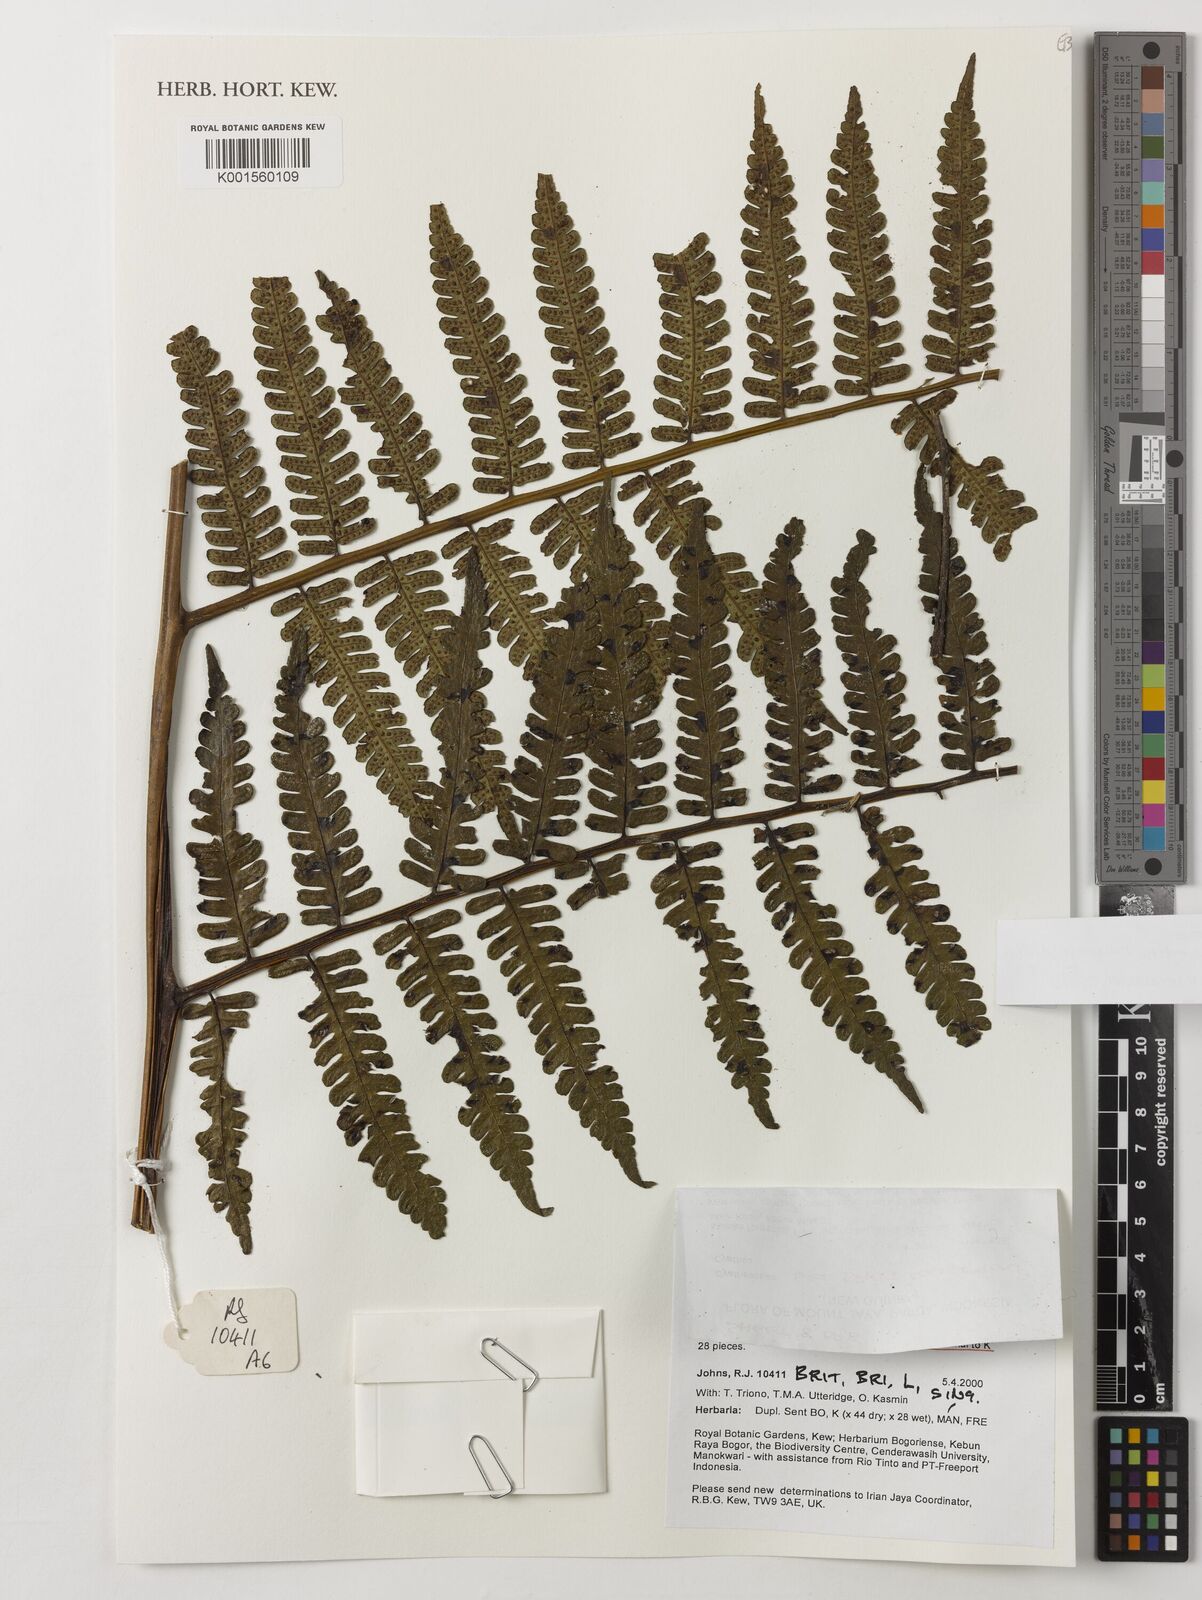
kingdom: Plantae
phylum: Tracheophyta
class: Polypodiopsida
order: Cyatheales
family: Cyatheaceae
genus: Sphaeropteris
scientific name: Sphaeropteris runensis
